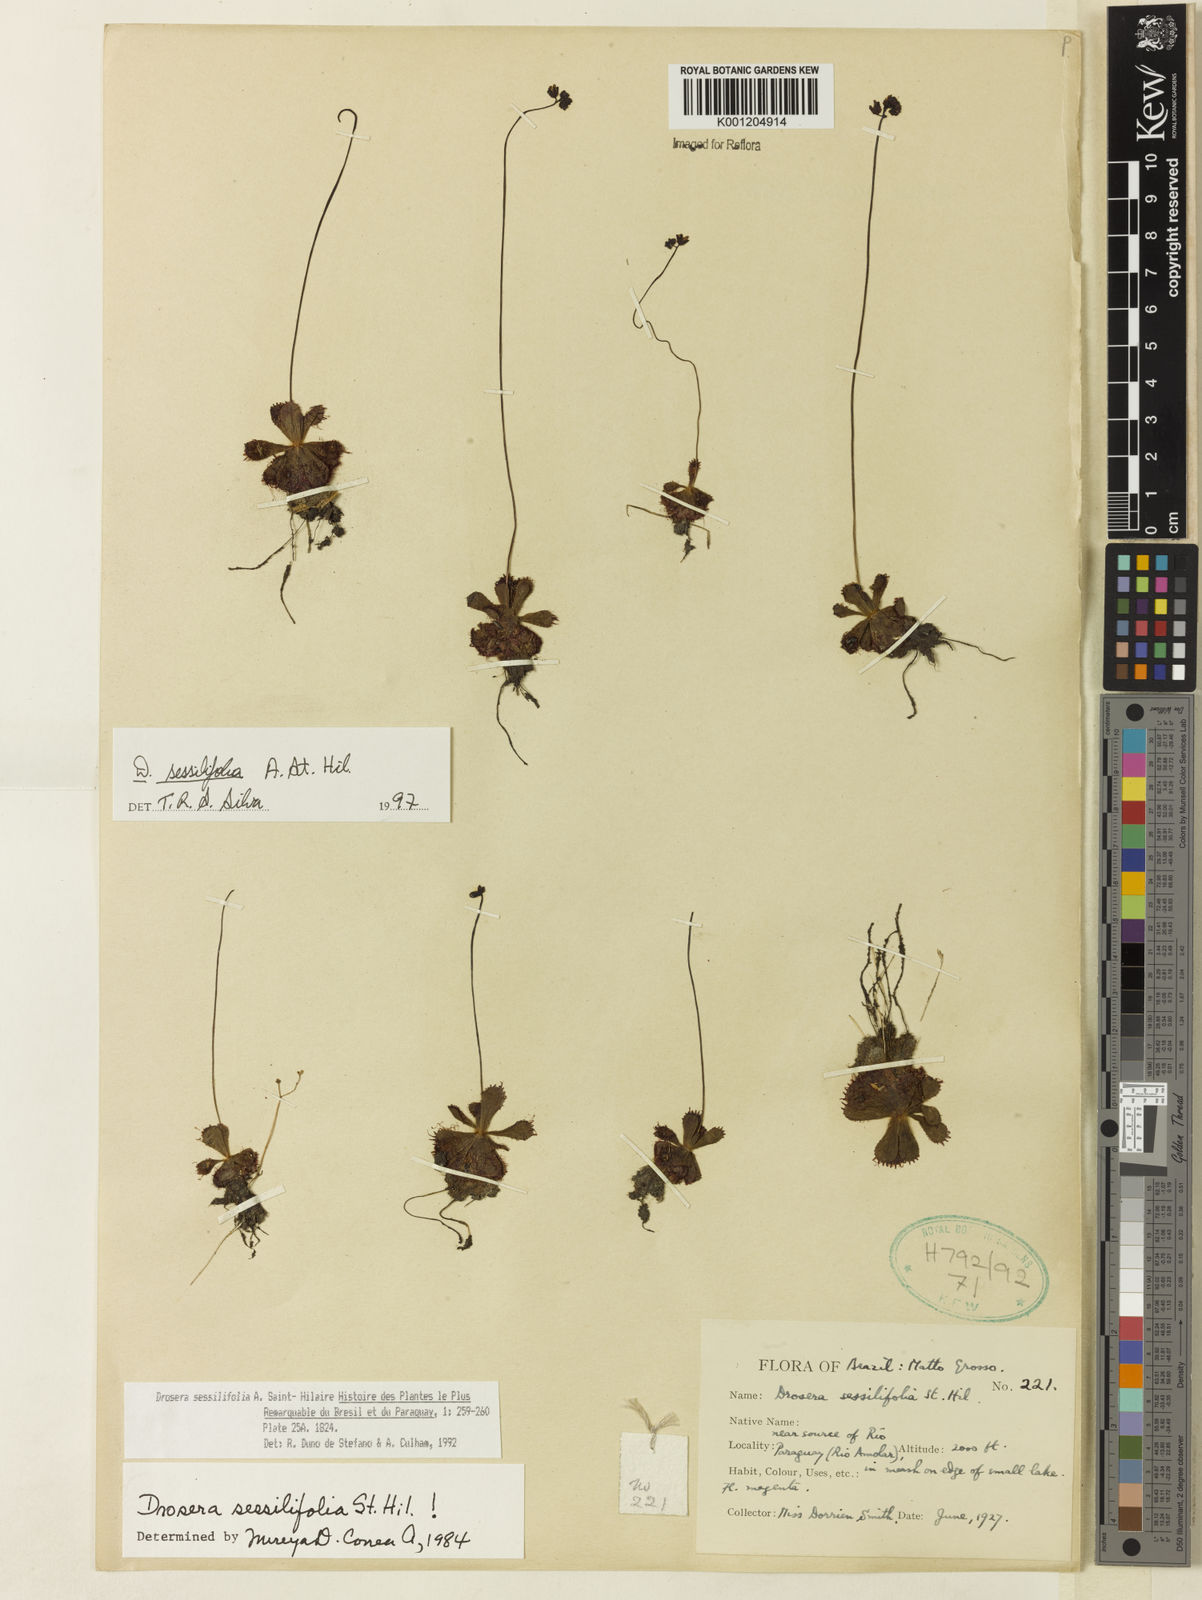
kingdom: Plantae
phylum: Tracheophyta
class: Magnoliopsida
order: Caryophyllales
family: Droseraceae
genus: Drosera
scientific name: Drosera sessilifolia
